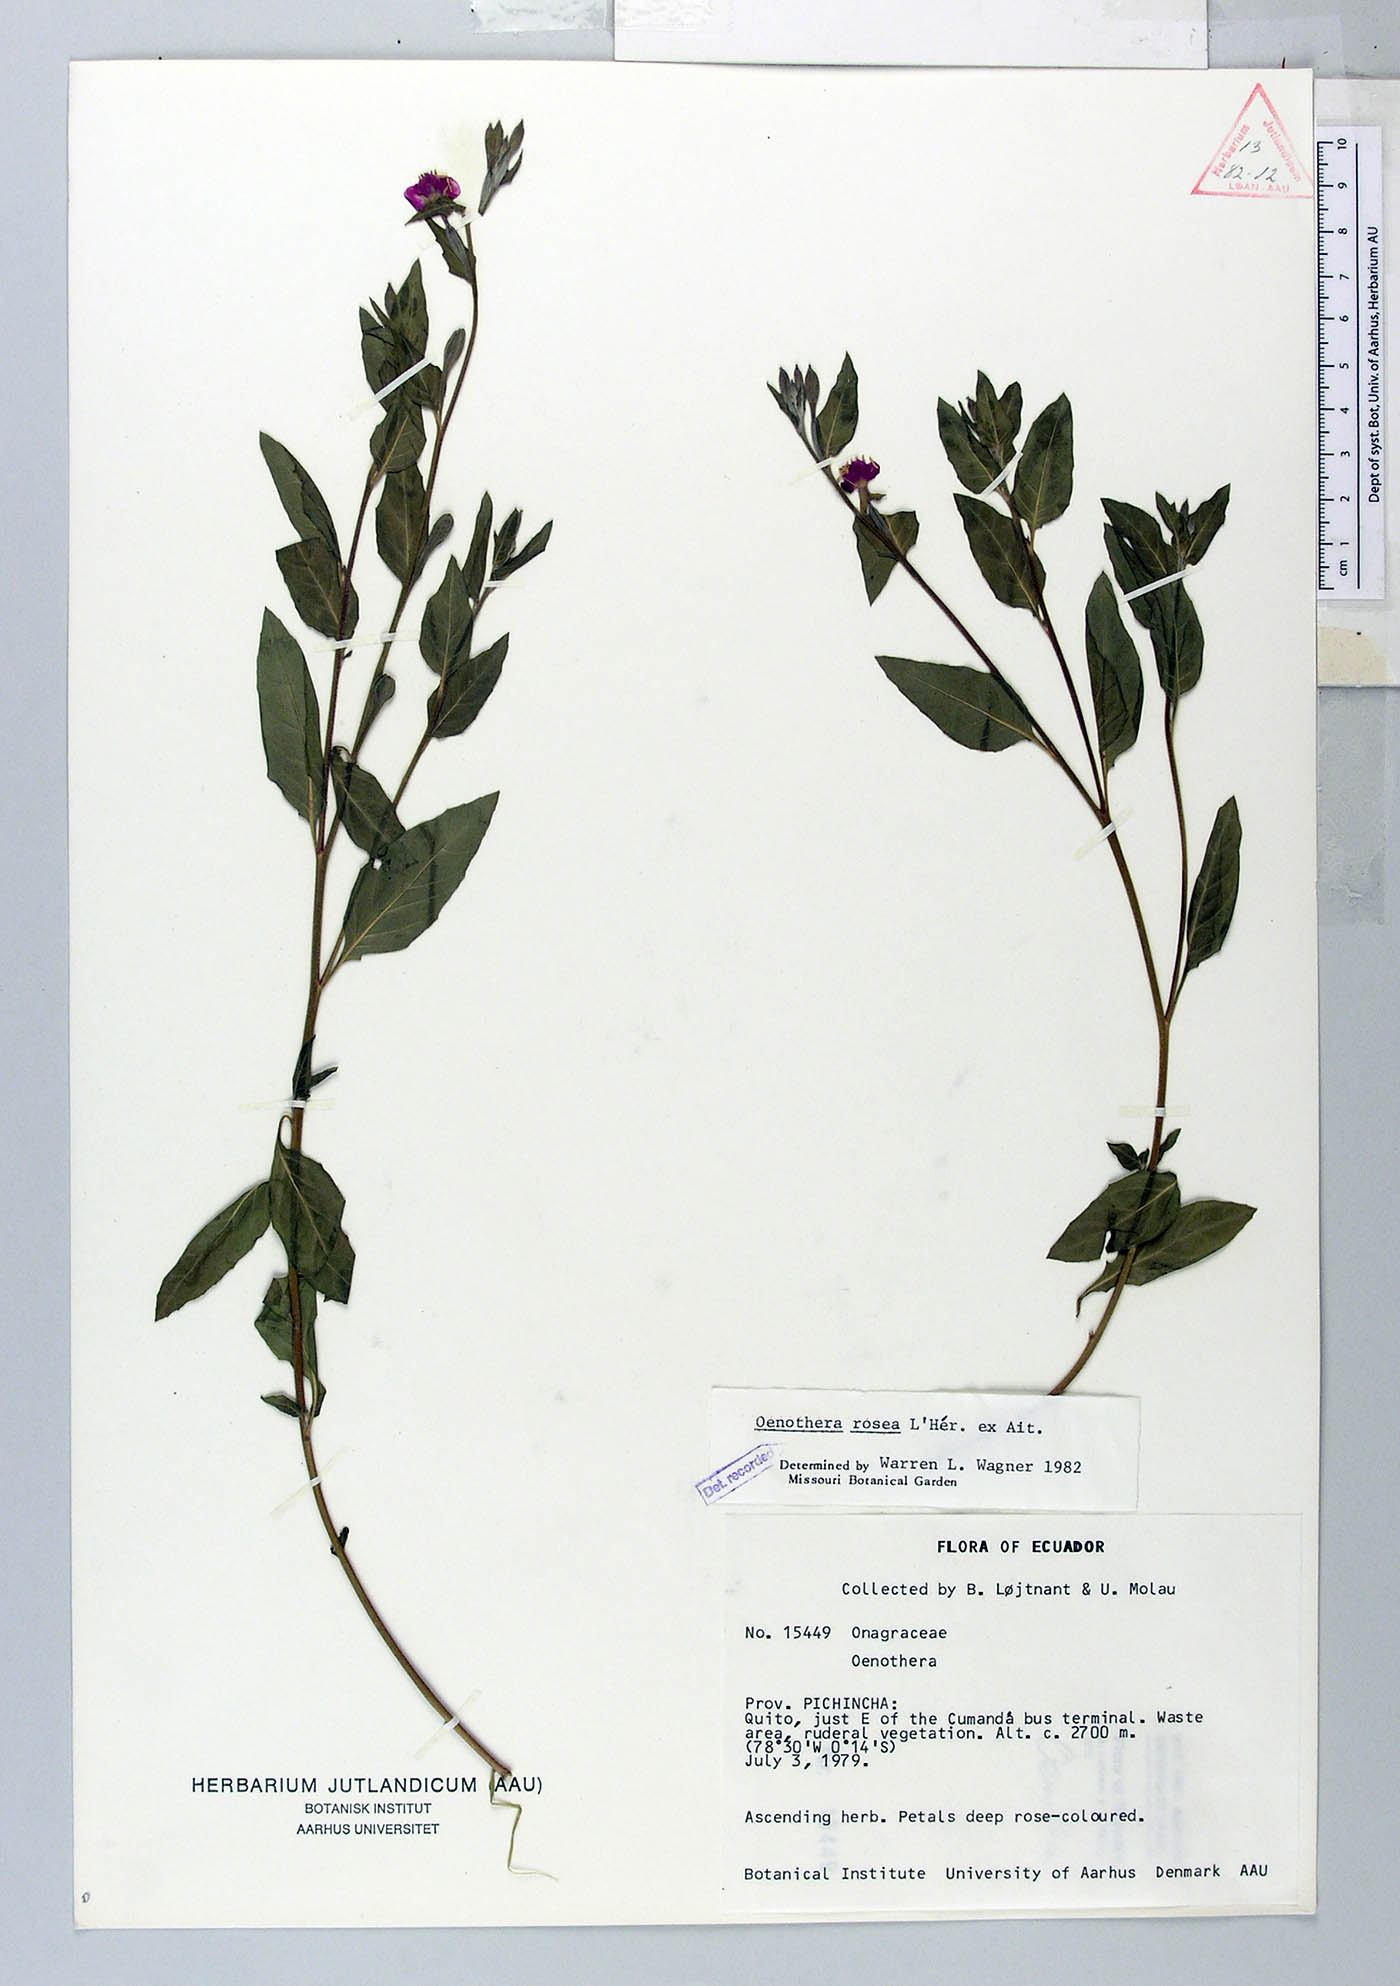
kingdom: Plantae
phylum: Tracheophyta
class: Magnoliopsida
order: Myrtales
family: Onagraceae
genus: Oenothera
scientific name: Oenothera rosea
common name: Rosy evening-primrose
